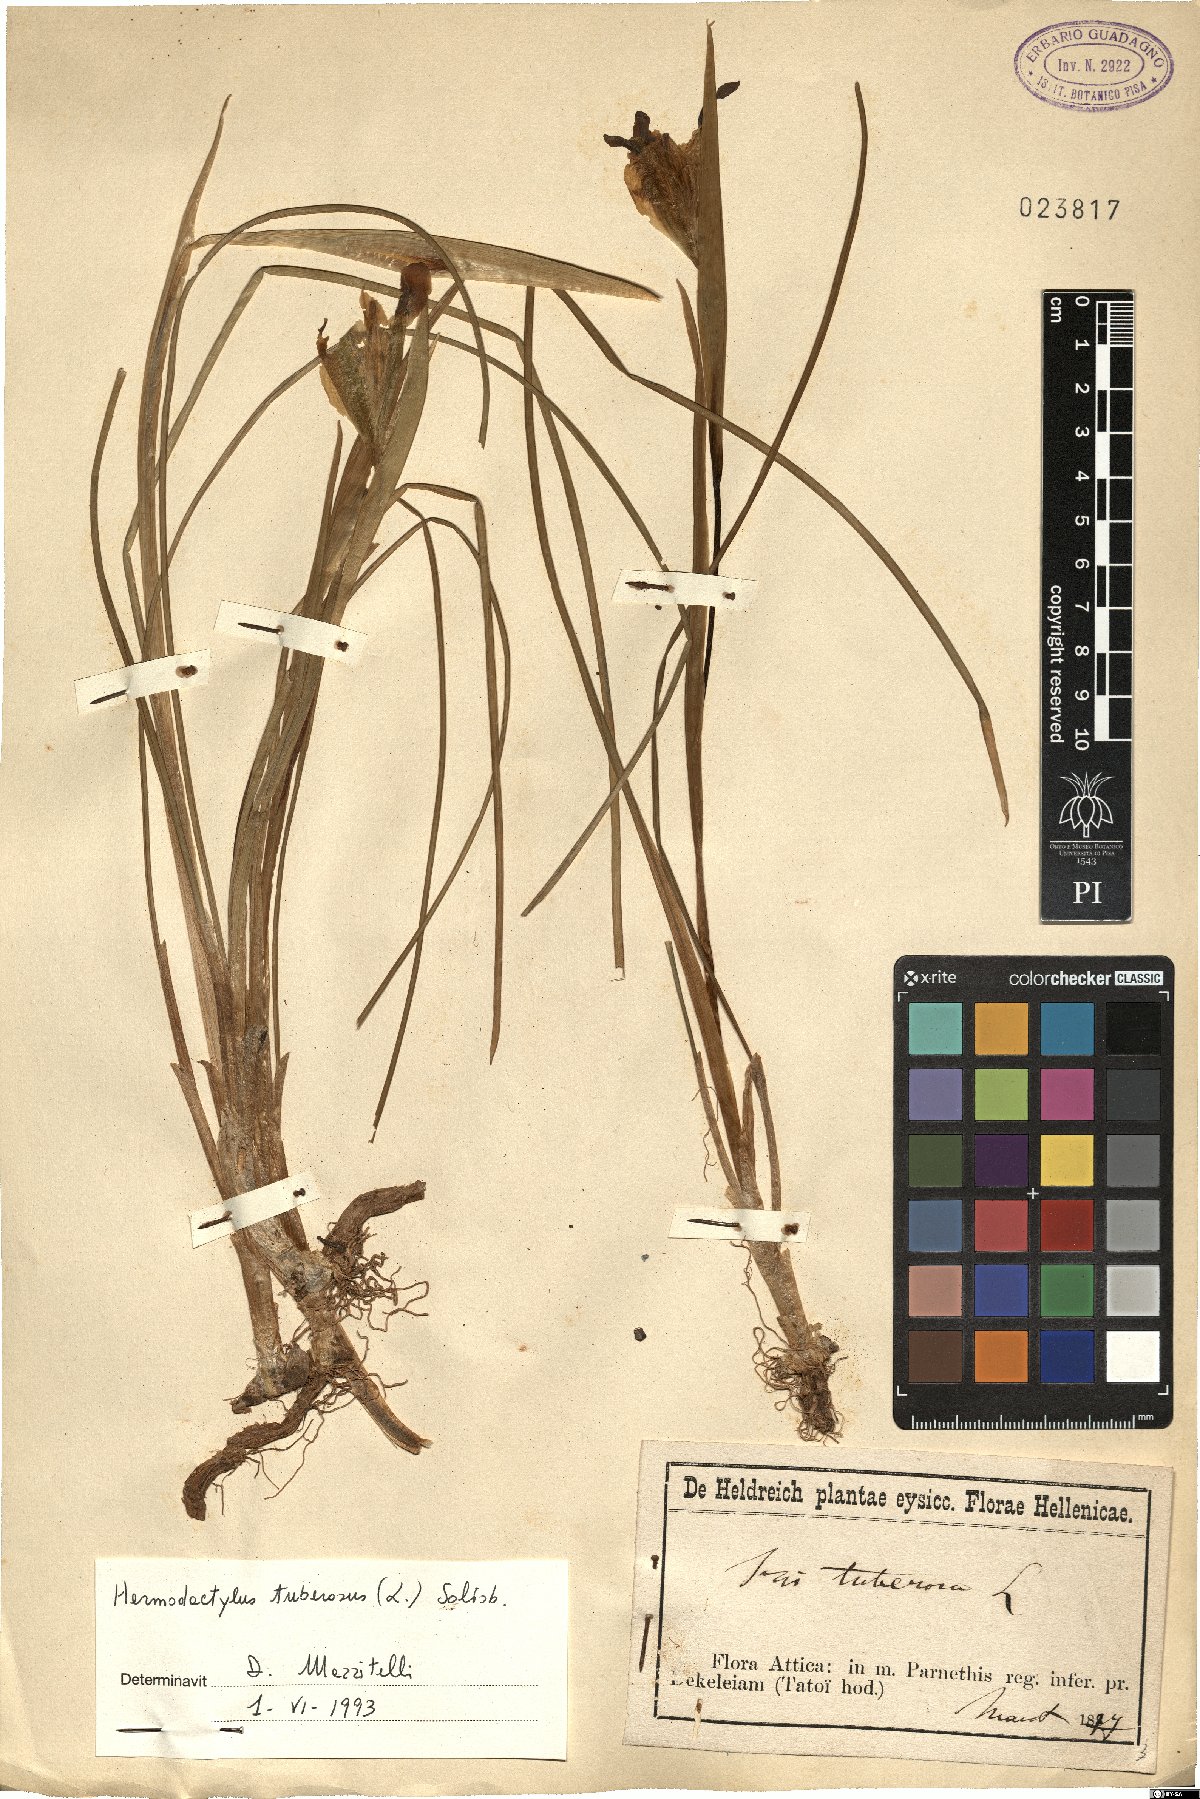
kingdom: Plantae
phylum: Tracheophyta
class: Liliopsida
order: Asparagales
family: Iridaceae
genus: Iris
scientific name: Iris tuberosa
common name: Snake's-head iris
